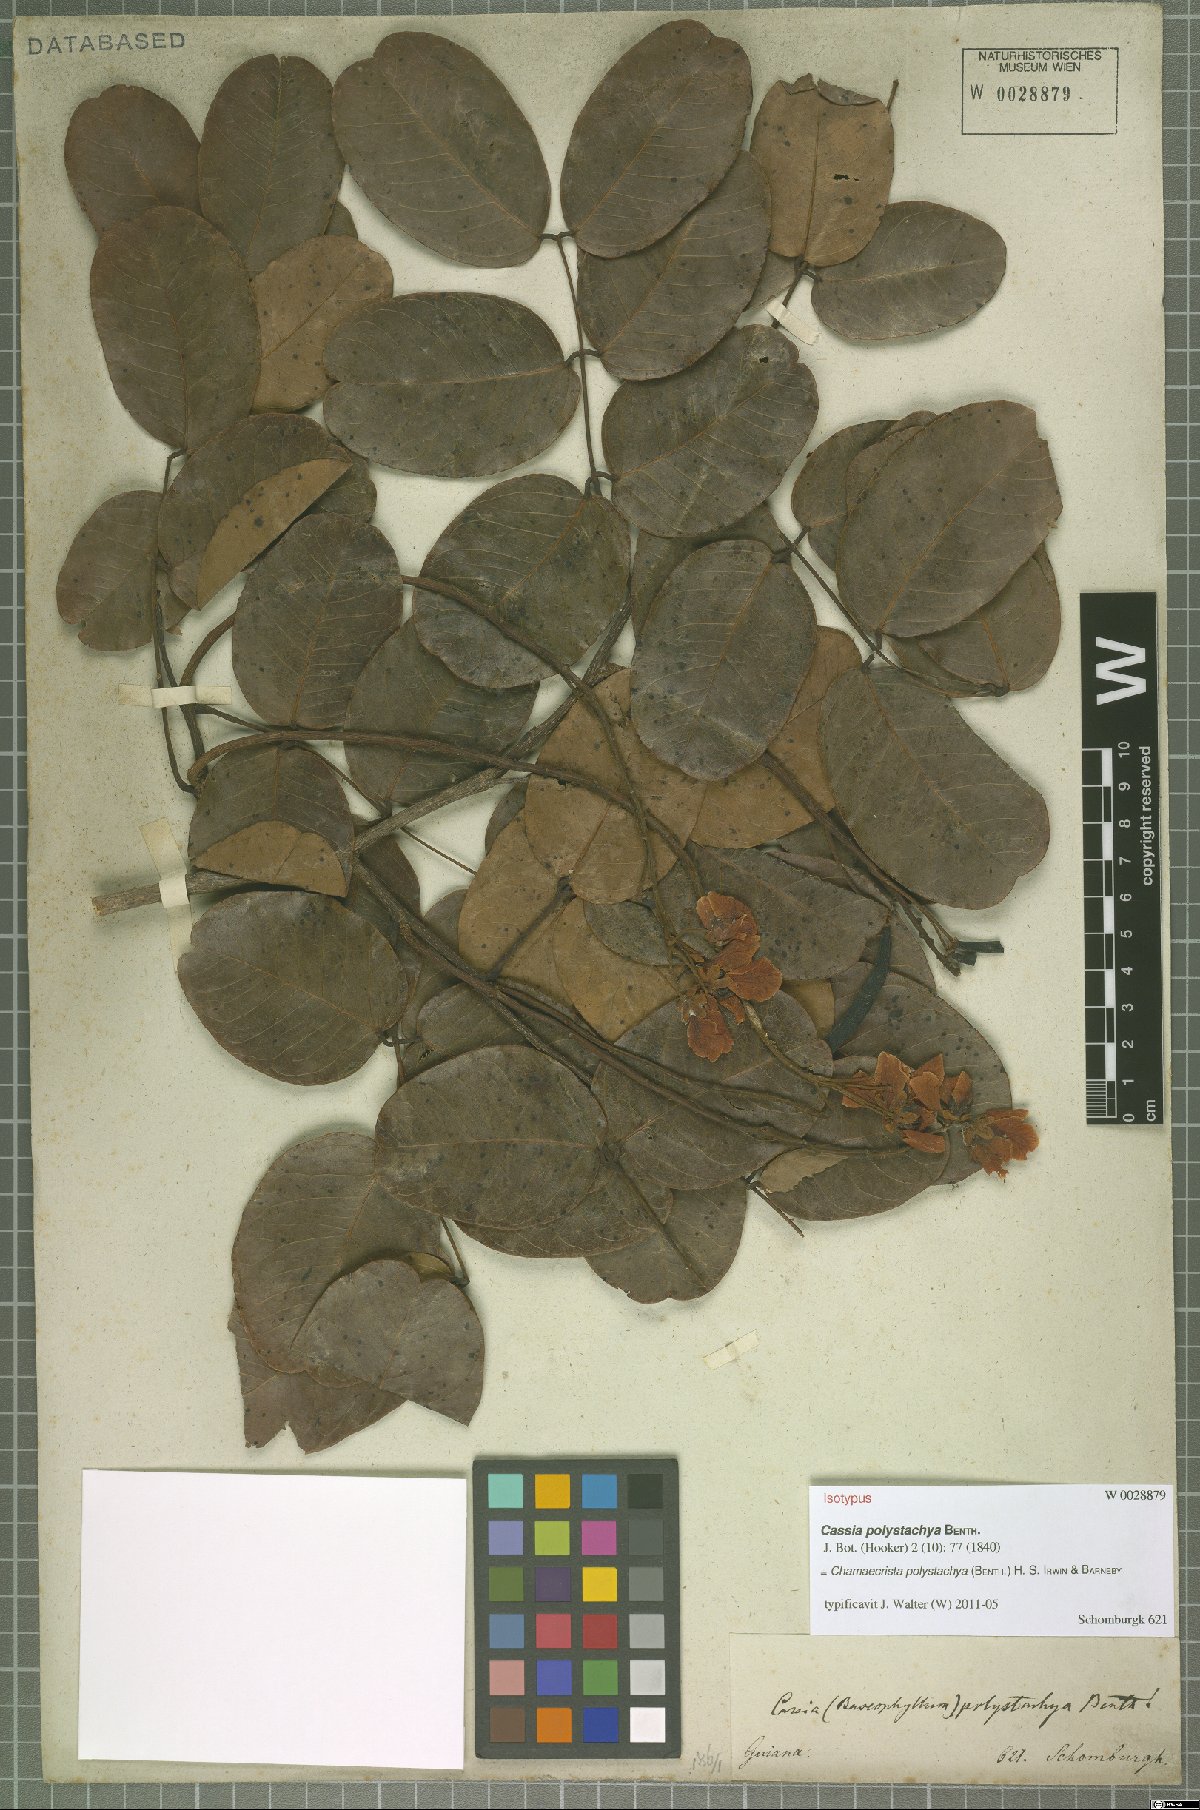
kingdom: Plantae
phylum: Tracheophyta
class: Magnoliopsida
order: Fabales
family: Fabaceae
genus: Chamaecrista
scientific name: Chamaecrista polystachya
